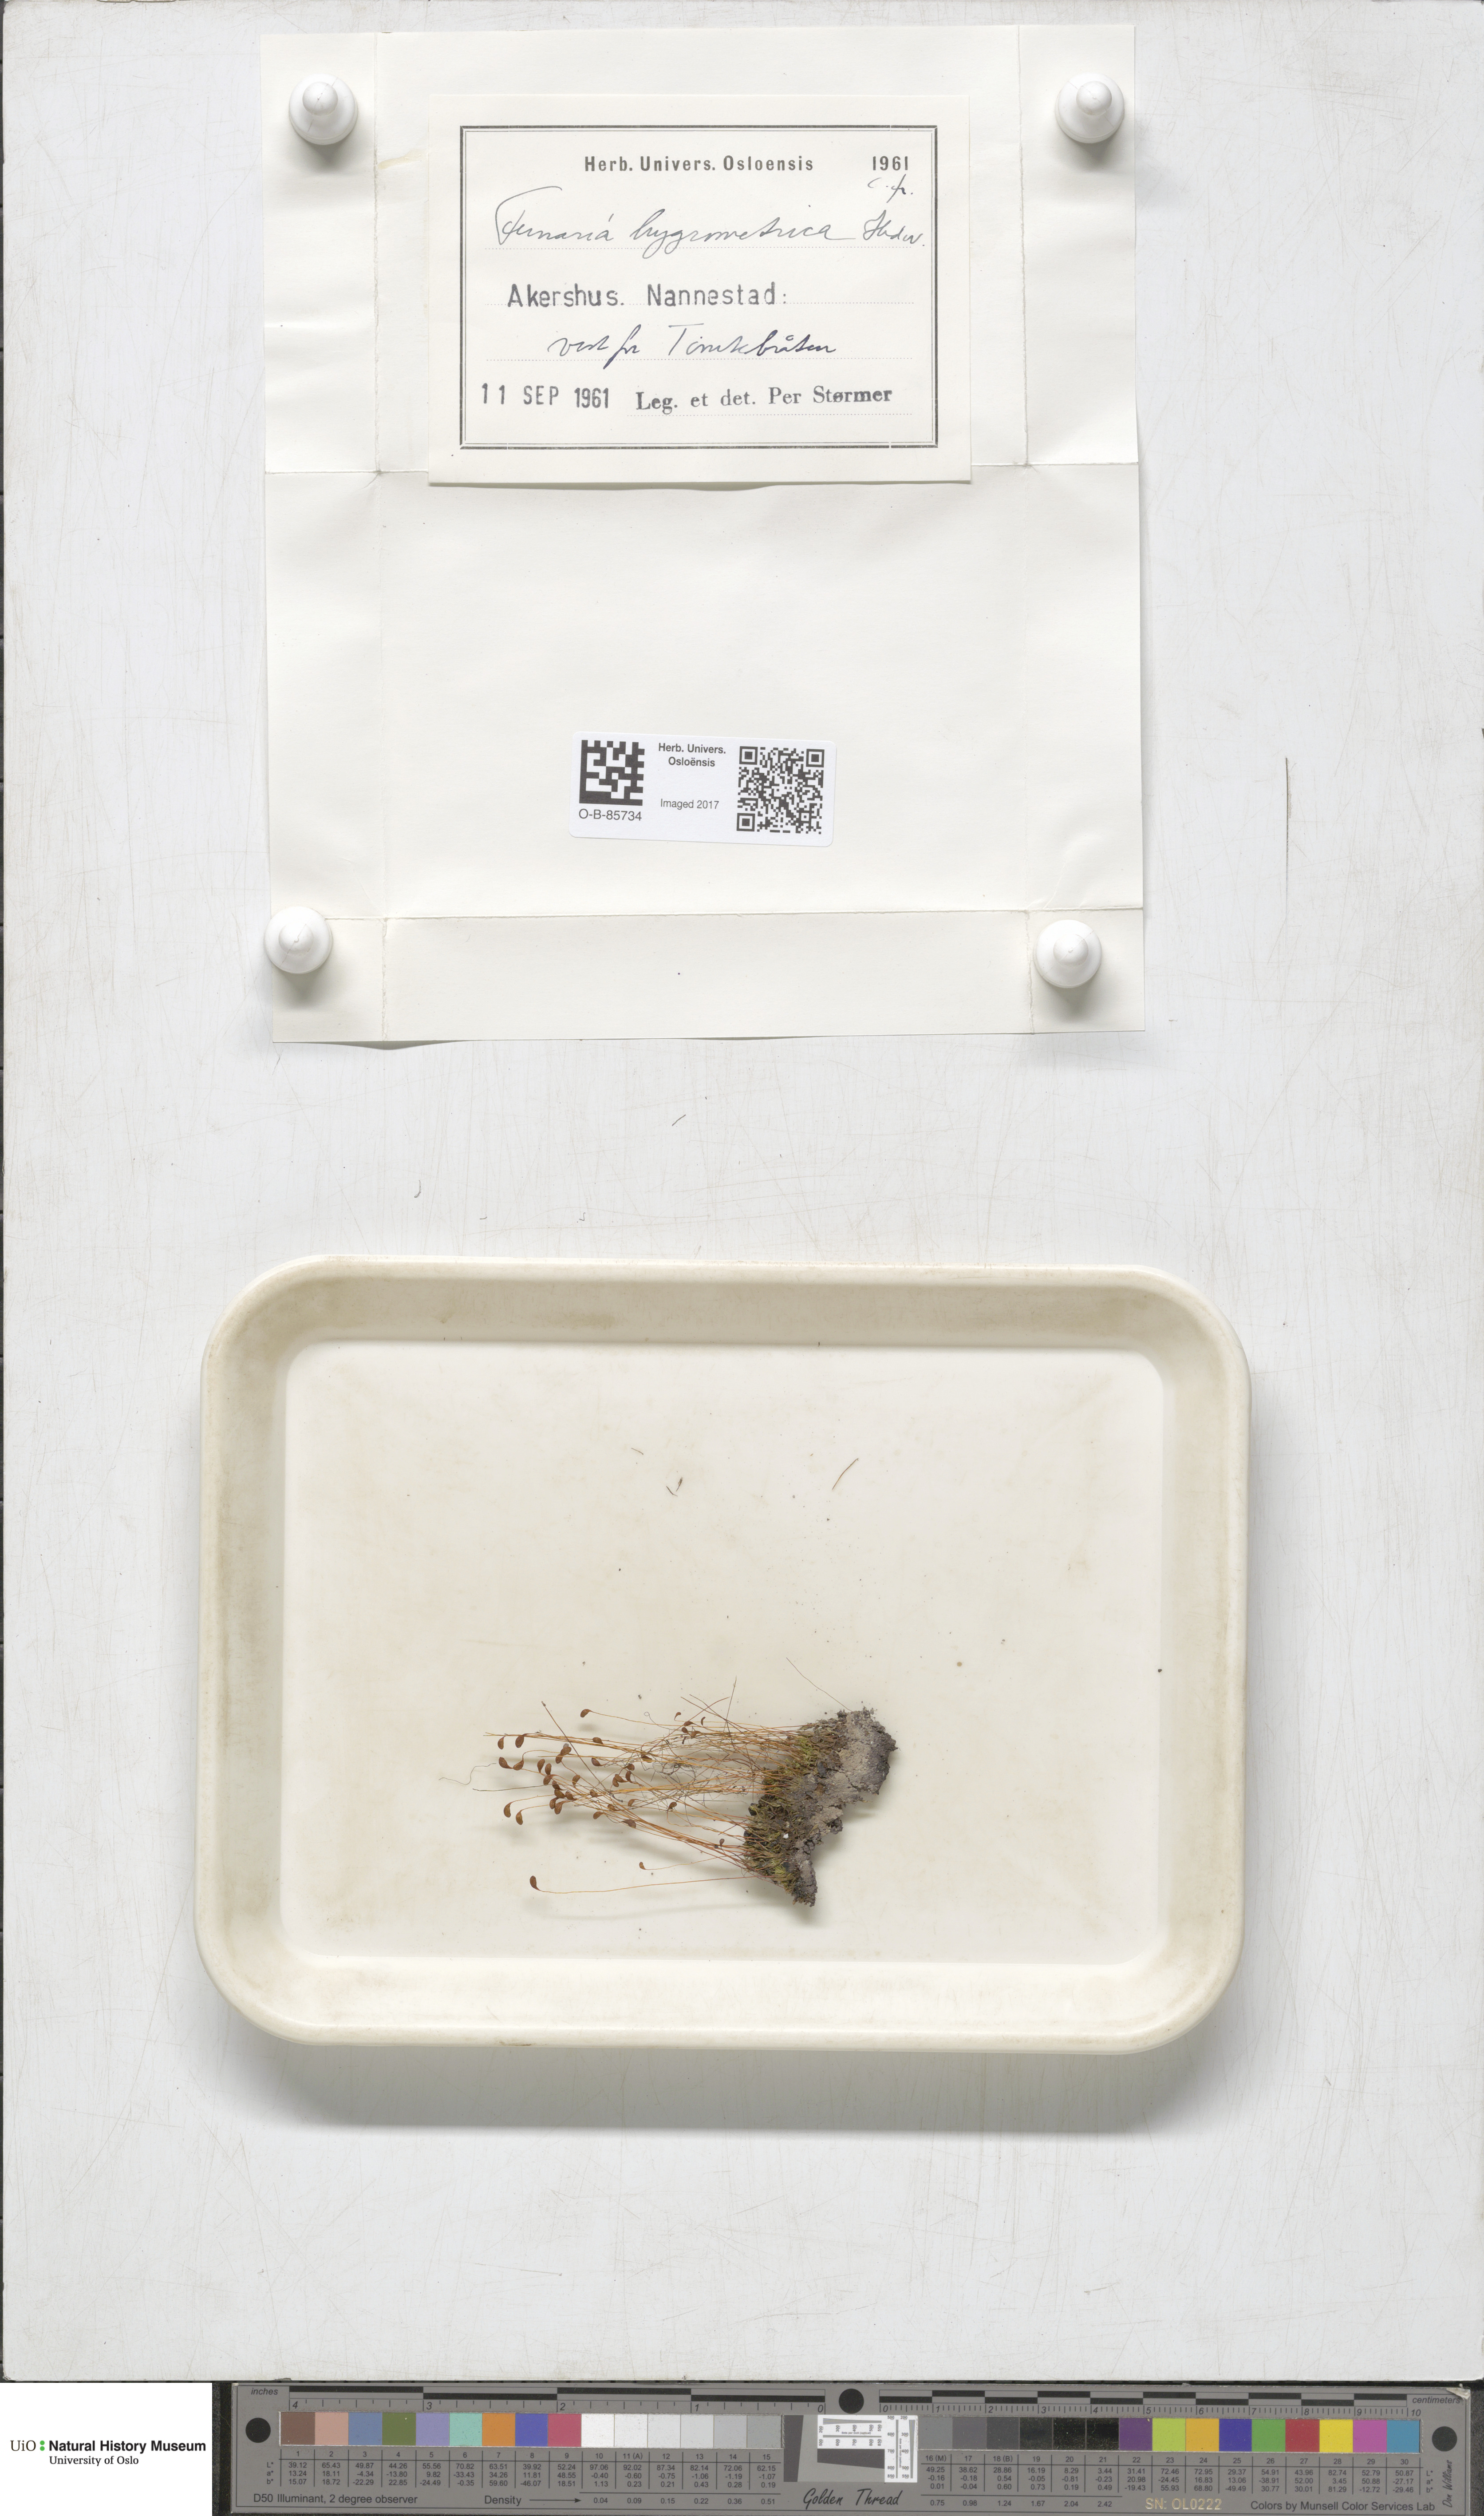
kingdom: Plantae
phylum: Bryophyta
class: Bryopsida
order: Funariales
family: Funariaceae
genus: Funaria
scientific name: Funaria hygrometrica
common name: Common cord moss
